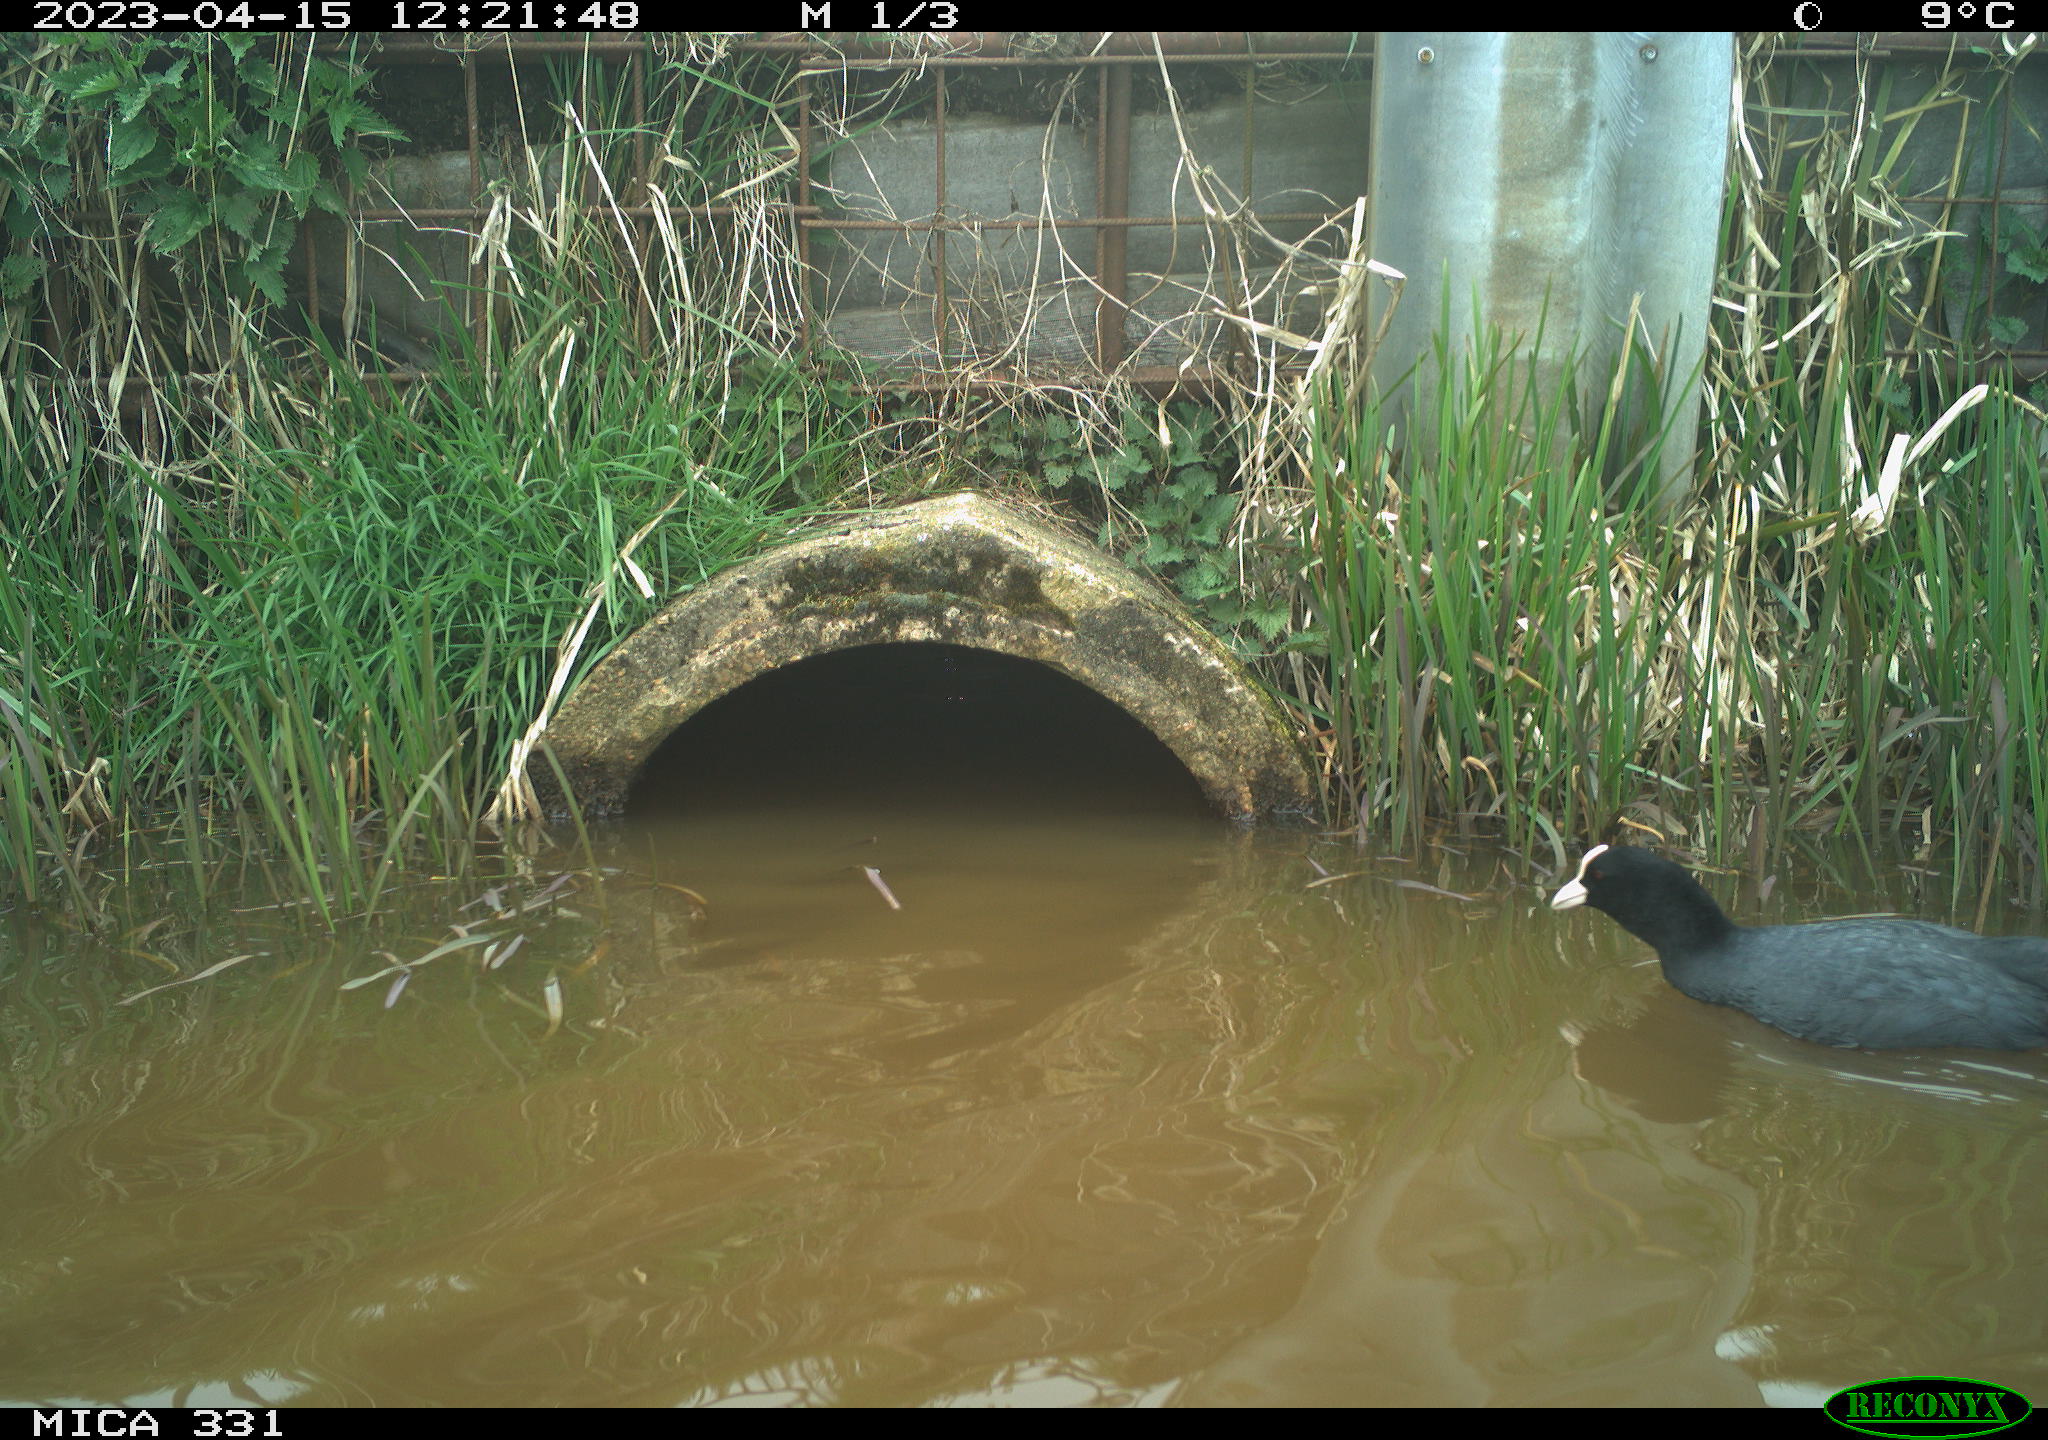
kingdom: Animalia
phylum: Chordata
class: Aves
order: Gruiformes
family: Rallidae
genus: Fulica
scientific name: Fulica atra
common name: Eurasian coot
